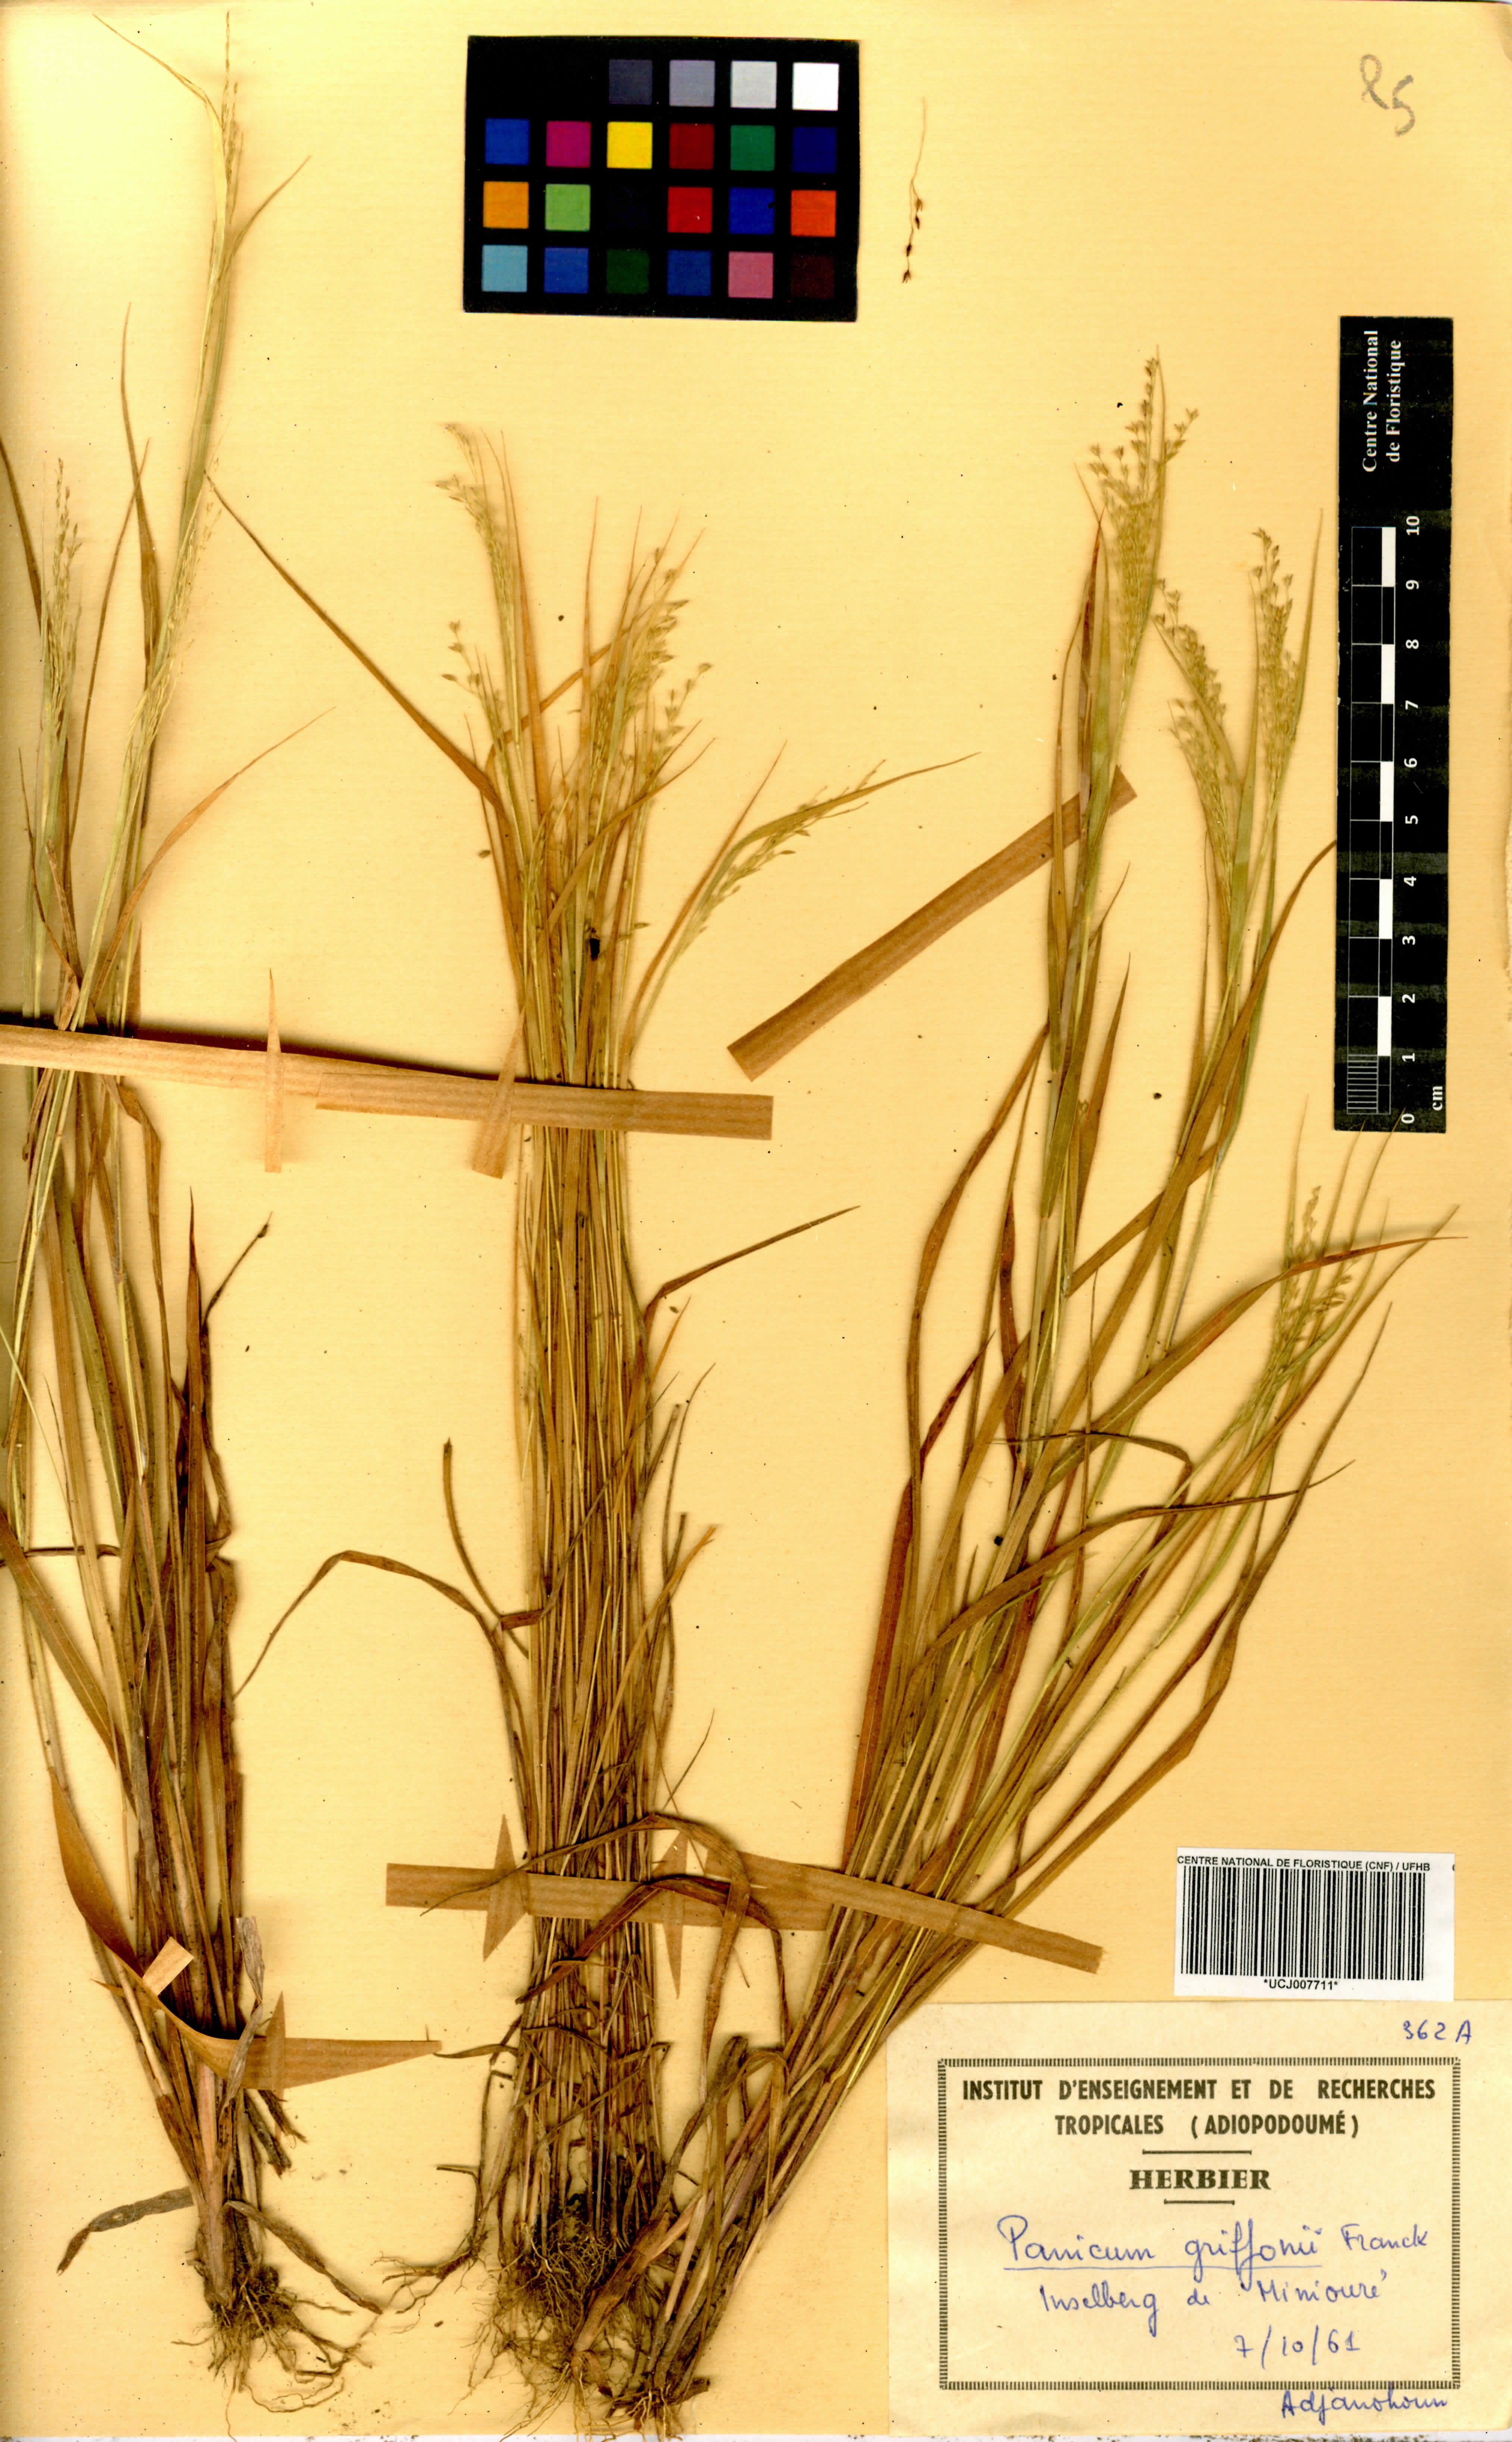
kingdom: Plantae
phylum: Tracheophyta
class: Liliopsida
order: Poales
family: Poaceae
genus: Panicum
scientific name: Panicum griffonii
